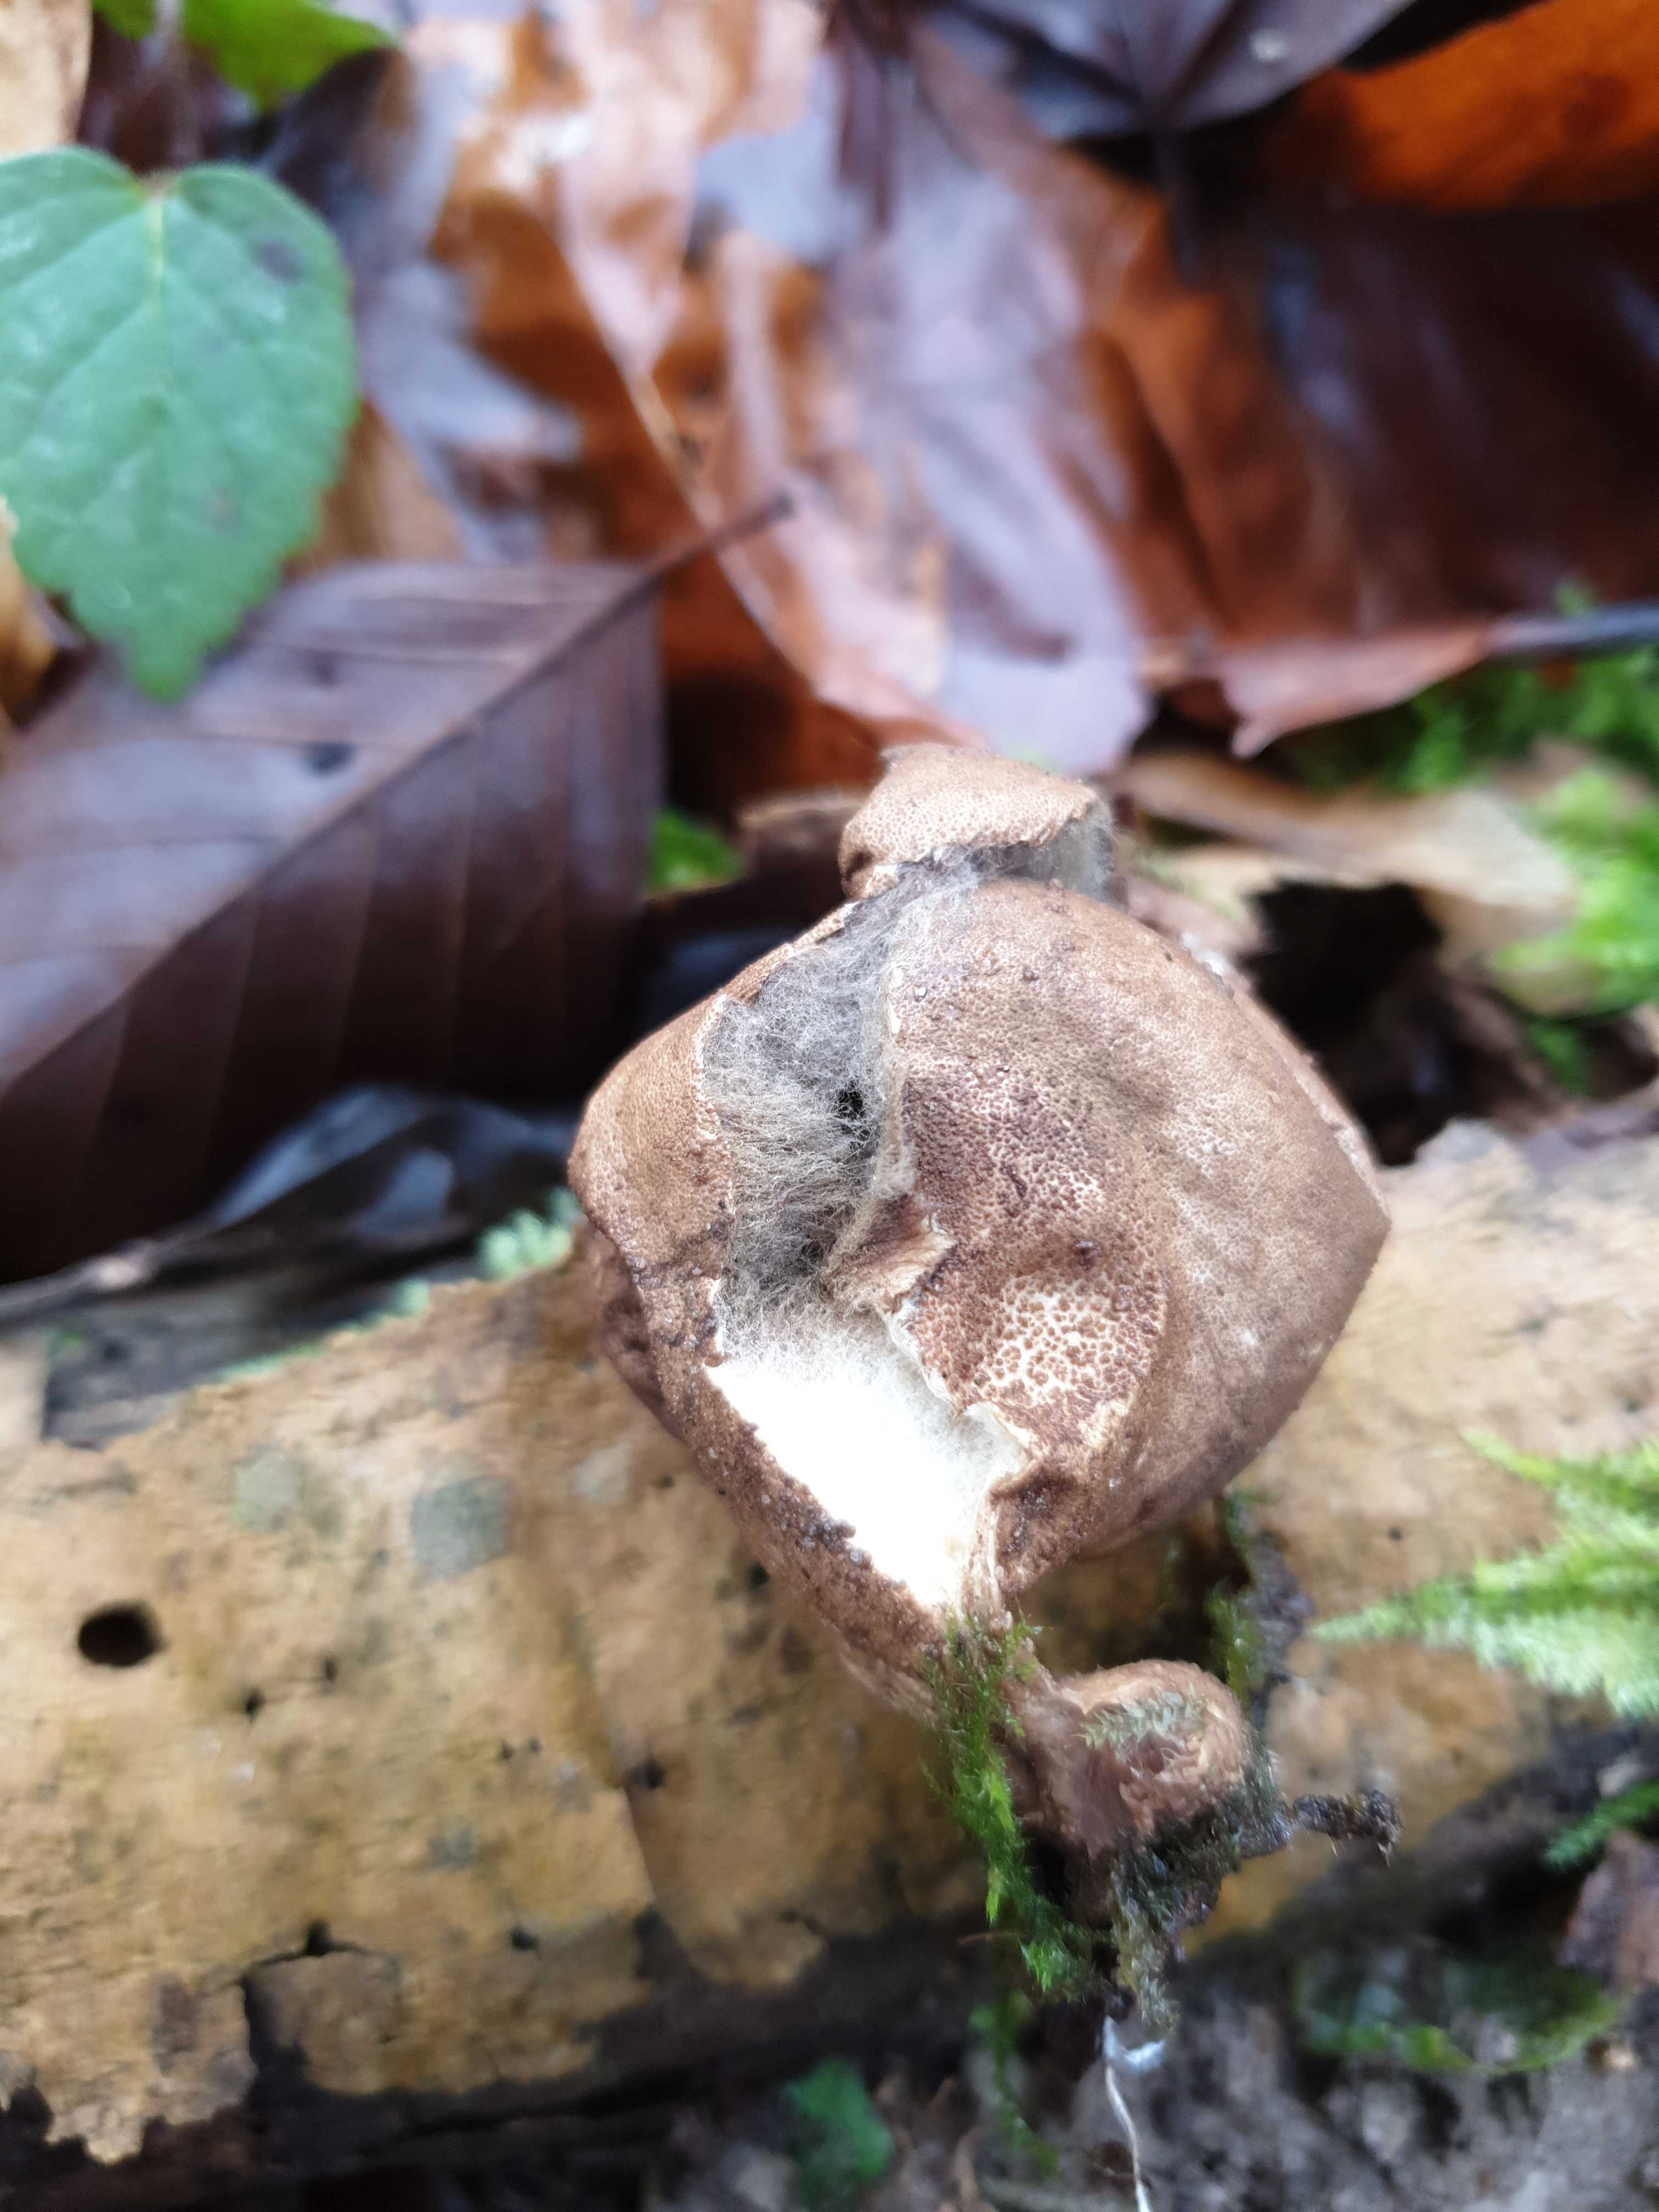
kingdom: Fungi
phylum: Basidiomycota
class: Agaricomycetes
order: Agaricales
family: Lycoperdaceae
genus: Apioperdon
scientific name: Apioperdon pyriforme
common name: pære-støvbold
